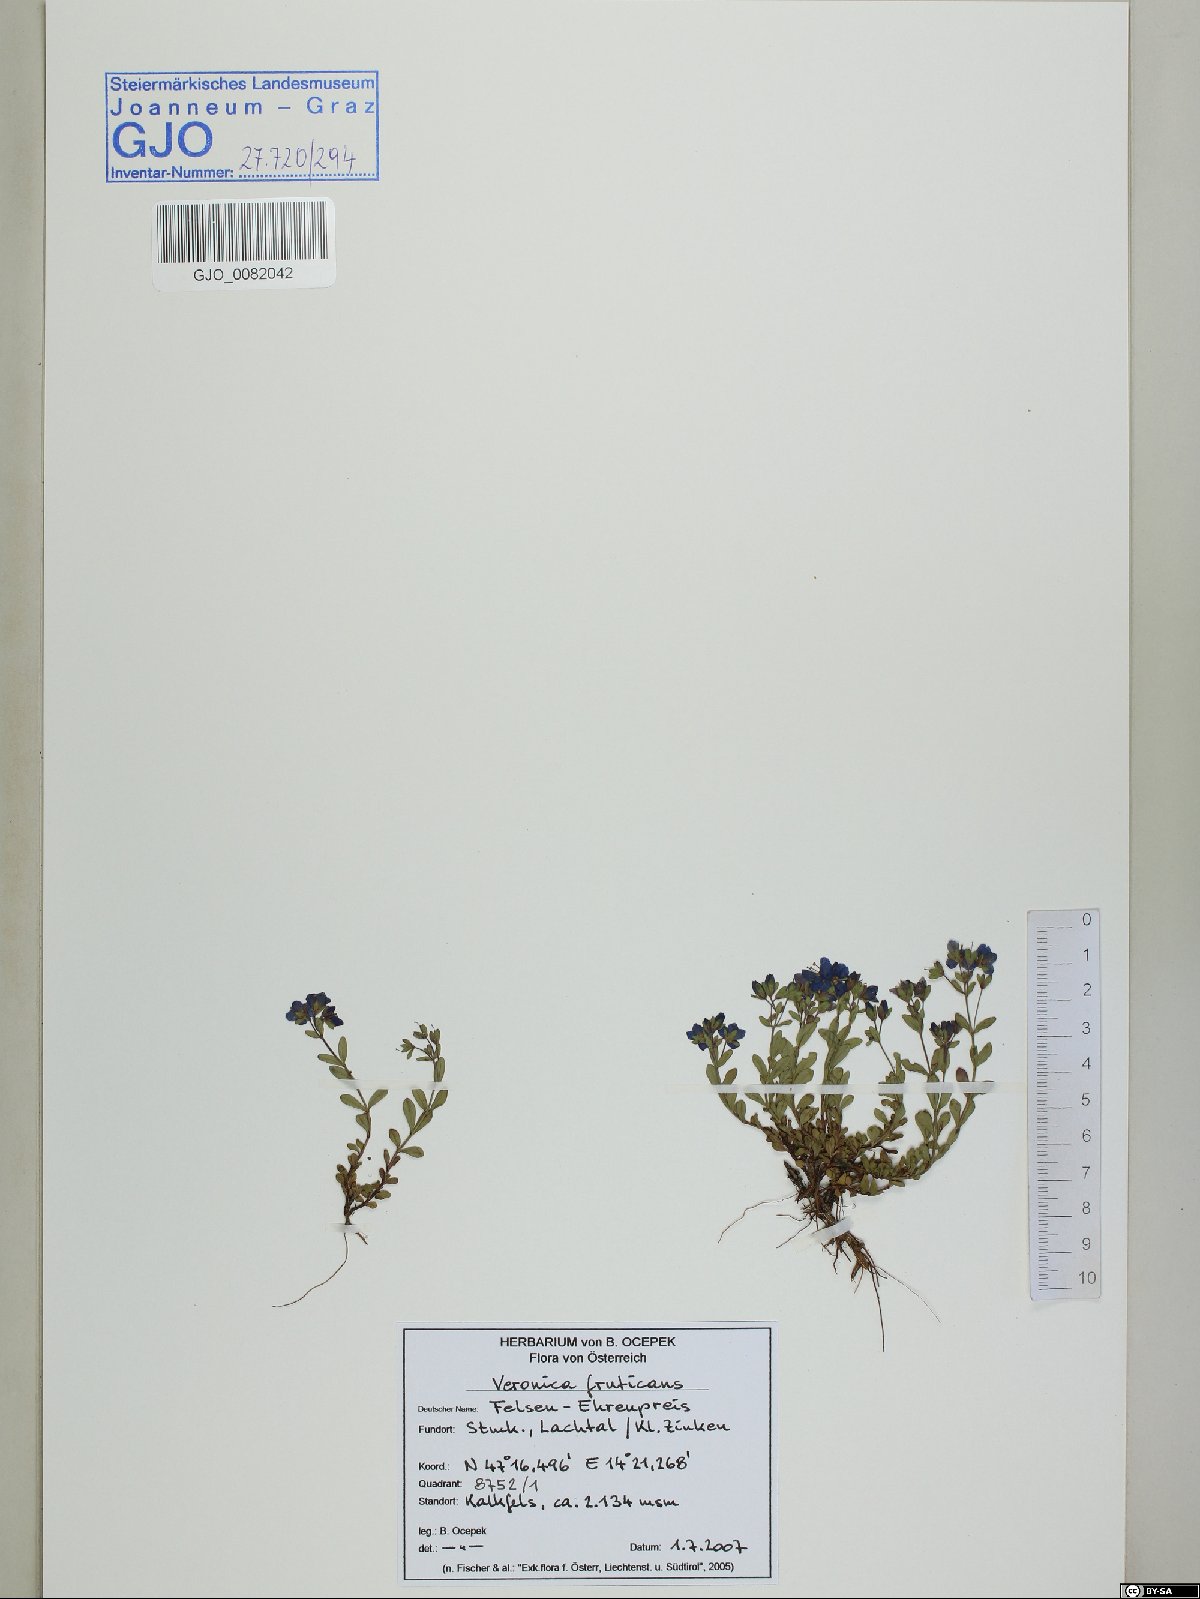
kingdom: Plantae
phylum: Tracheophyta
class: Magnoliopsida
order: Lamiales
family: Plantaginaceae
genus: Veronica
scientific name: Veronica fruticans
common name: Rock speedwell
